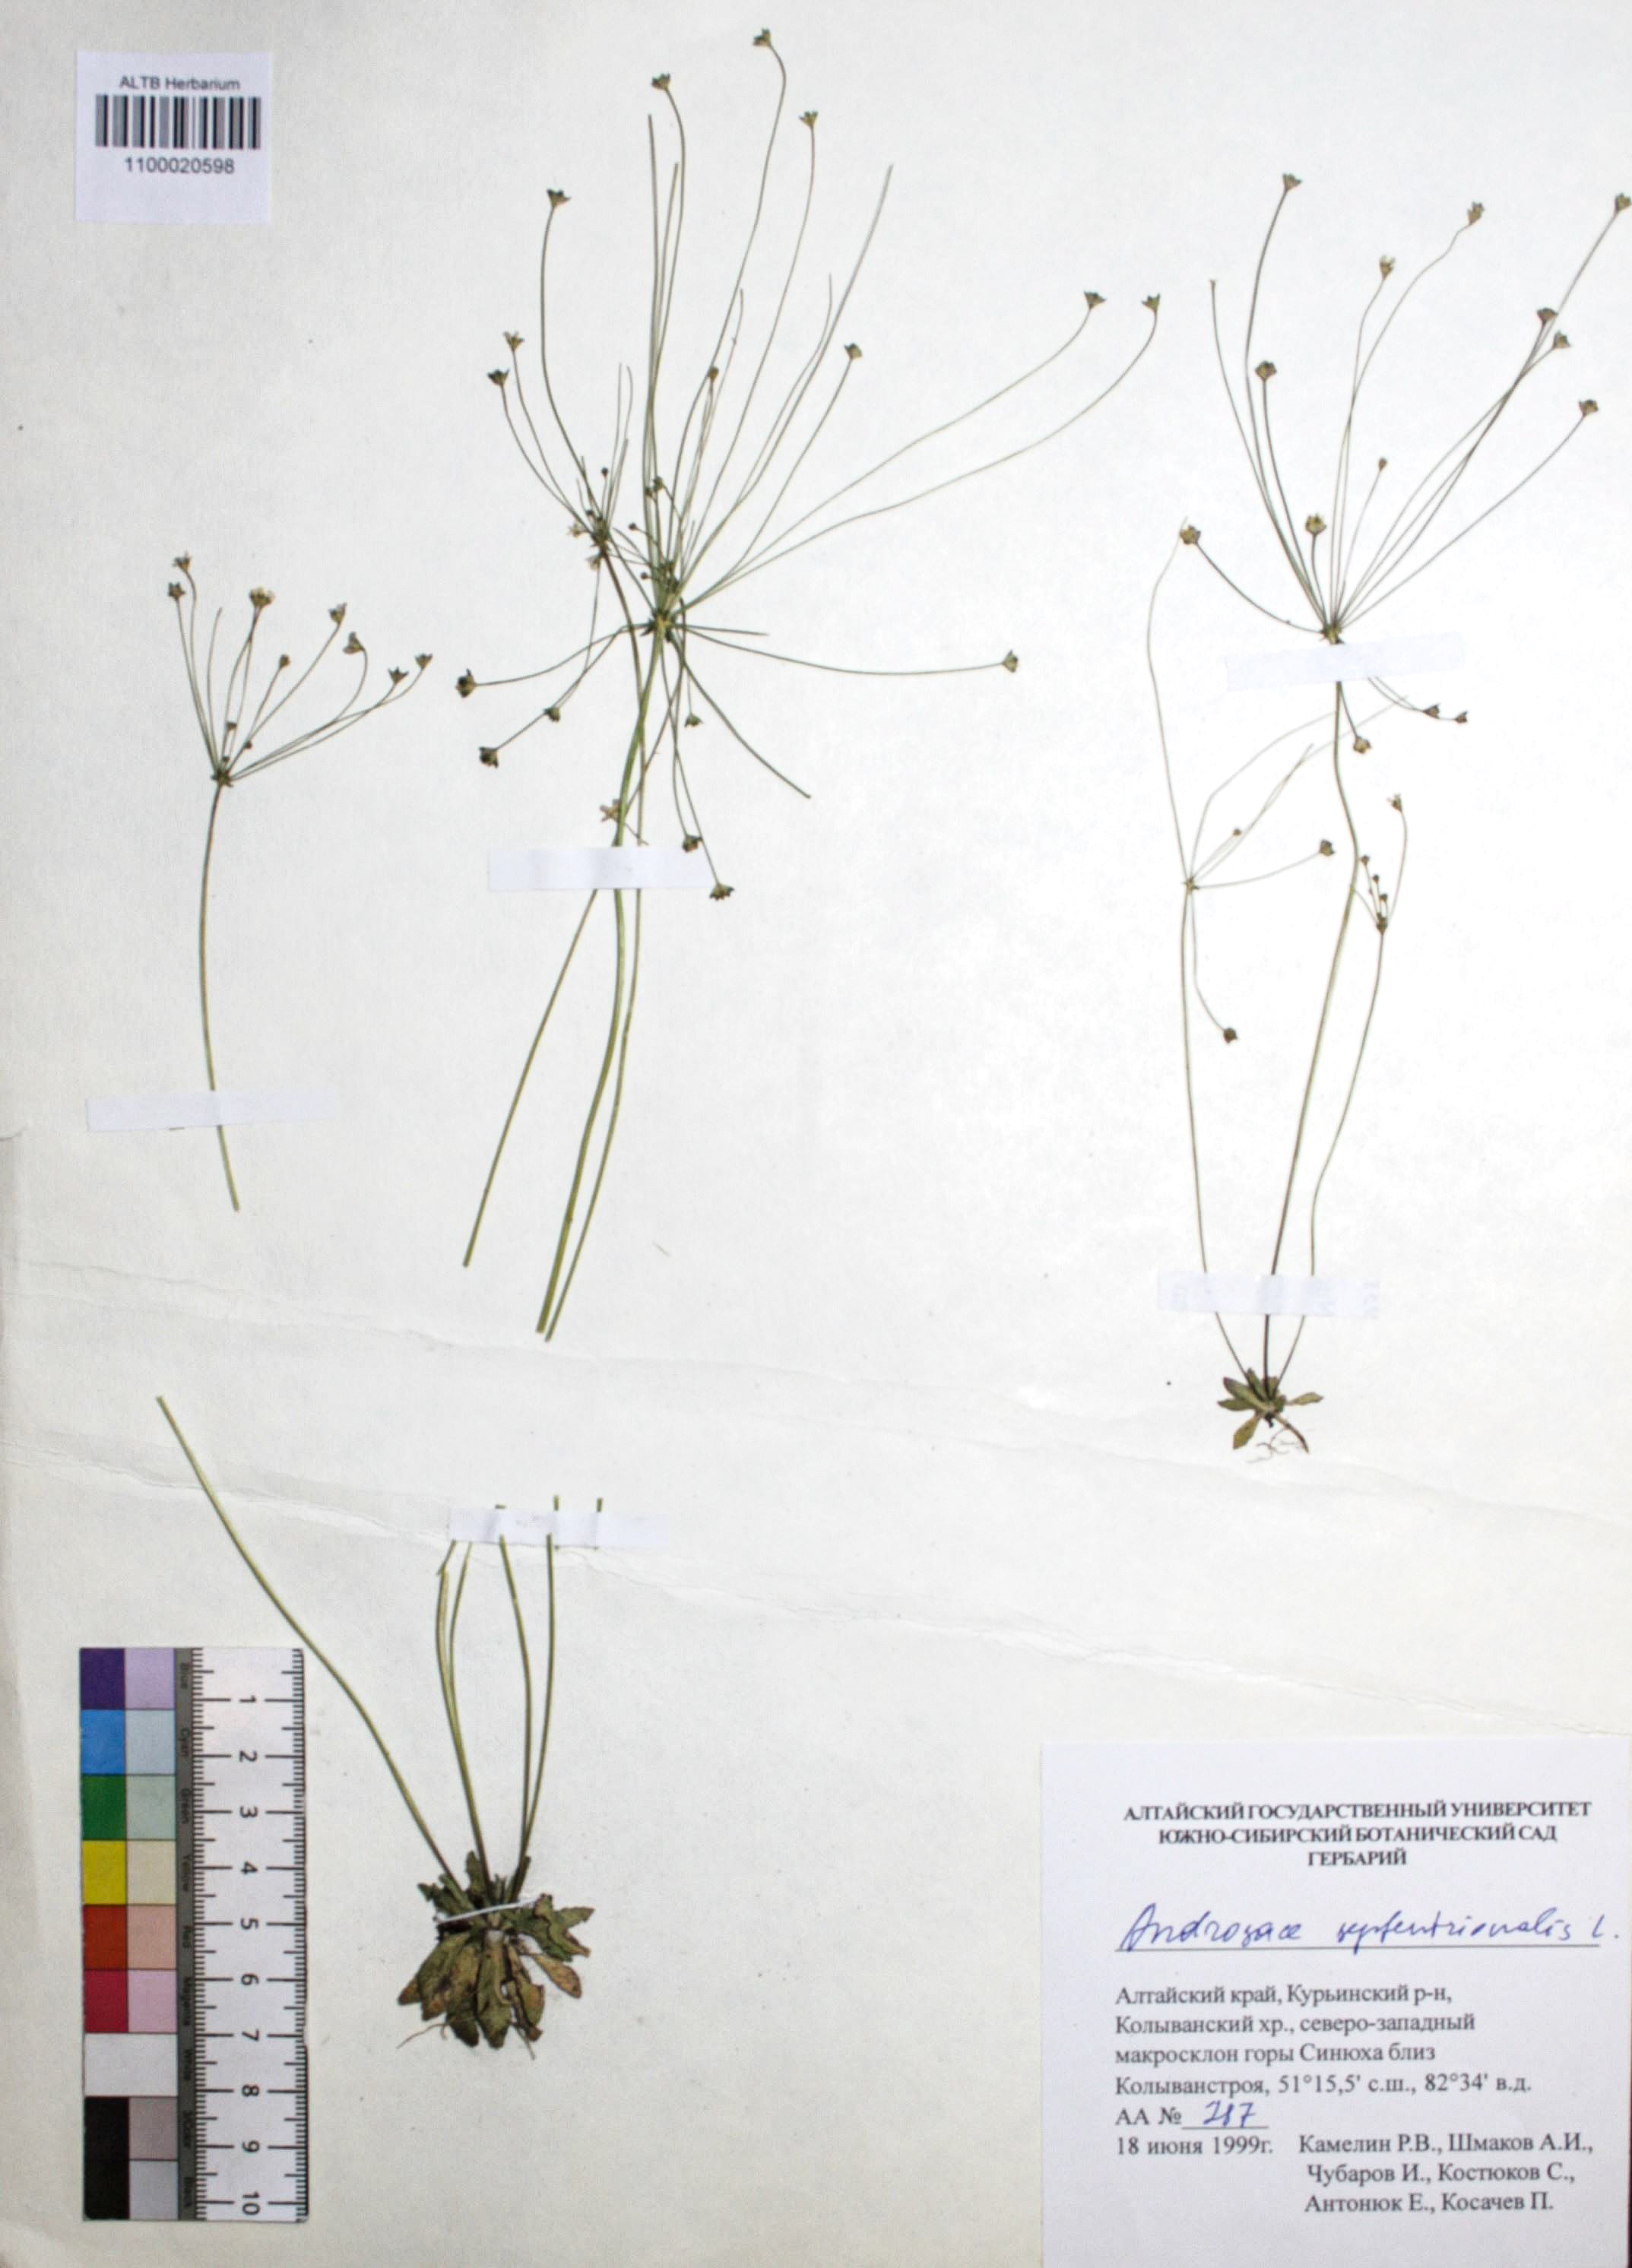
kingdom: Plantae
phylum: Tracheophyta
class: Magnoliopsida
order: Ericales
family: Primulaceae
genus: Androsace
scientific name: Androsace septentrionalis
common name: Hairy northern fairy-candelabra
